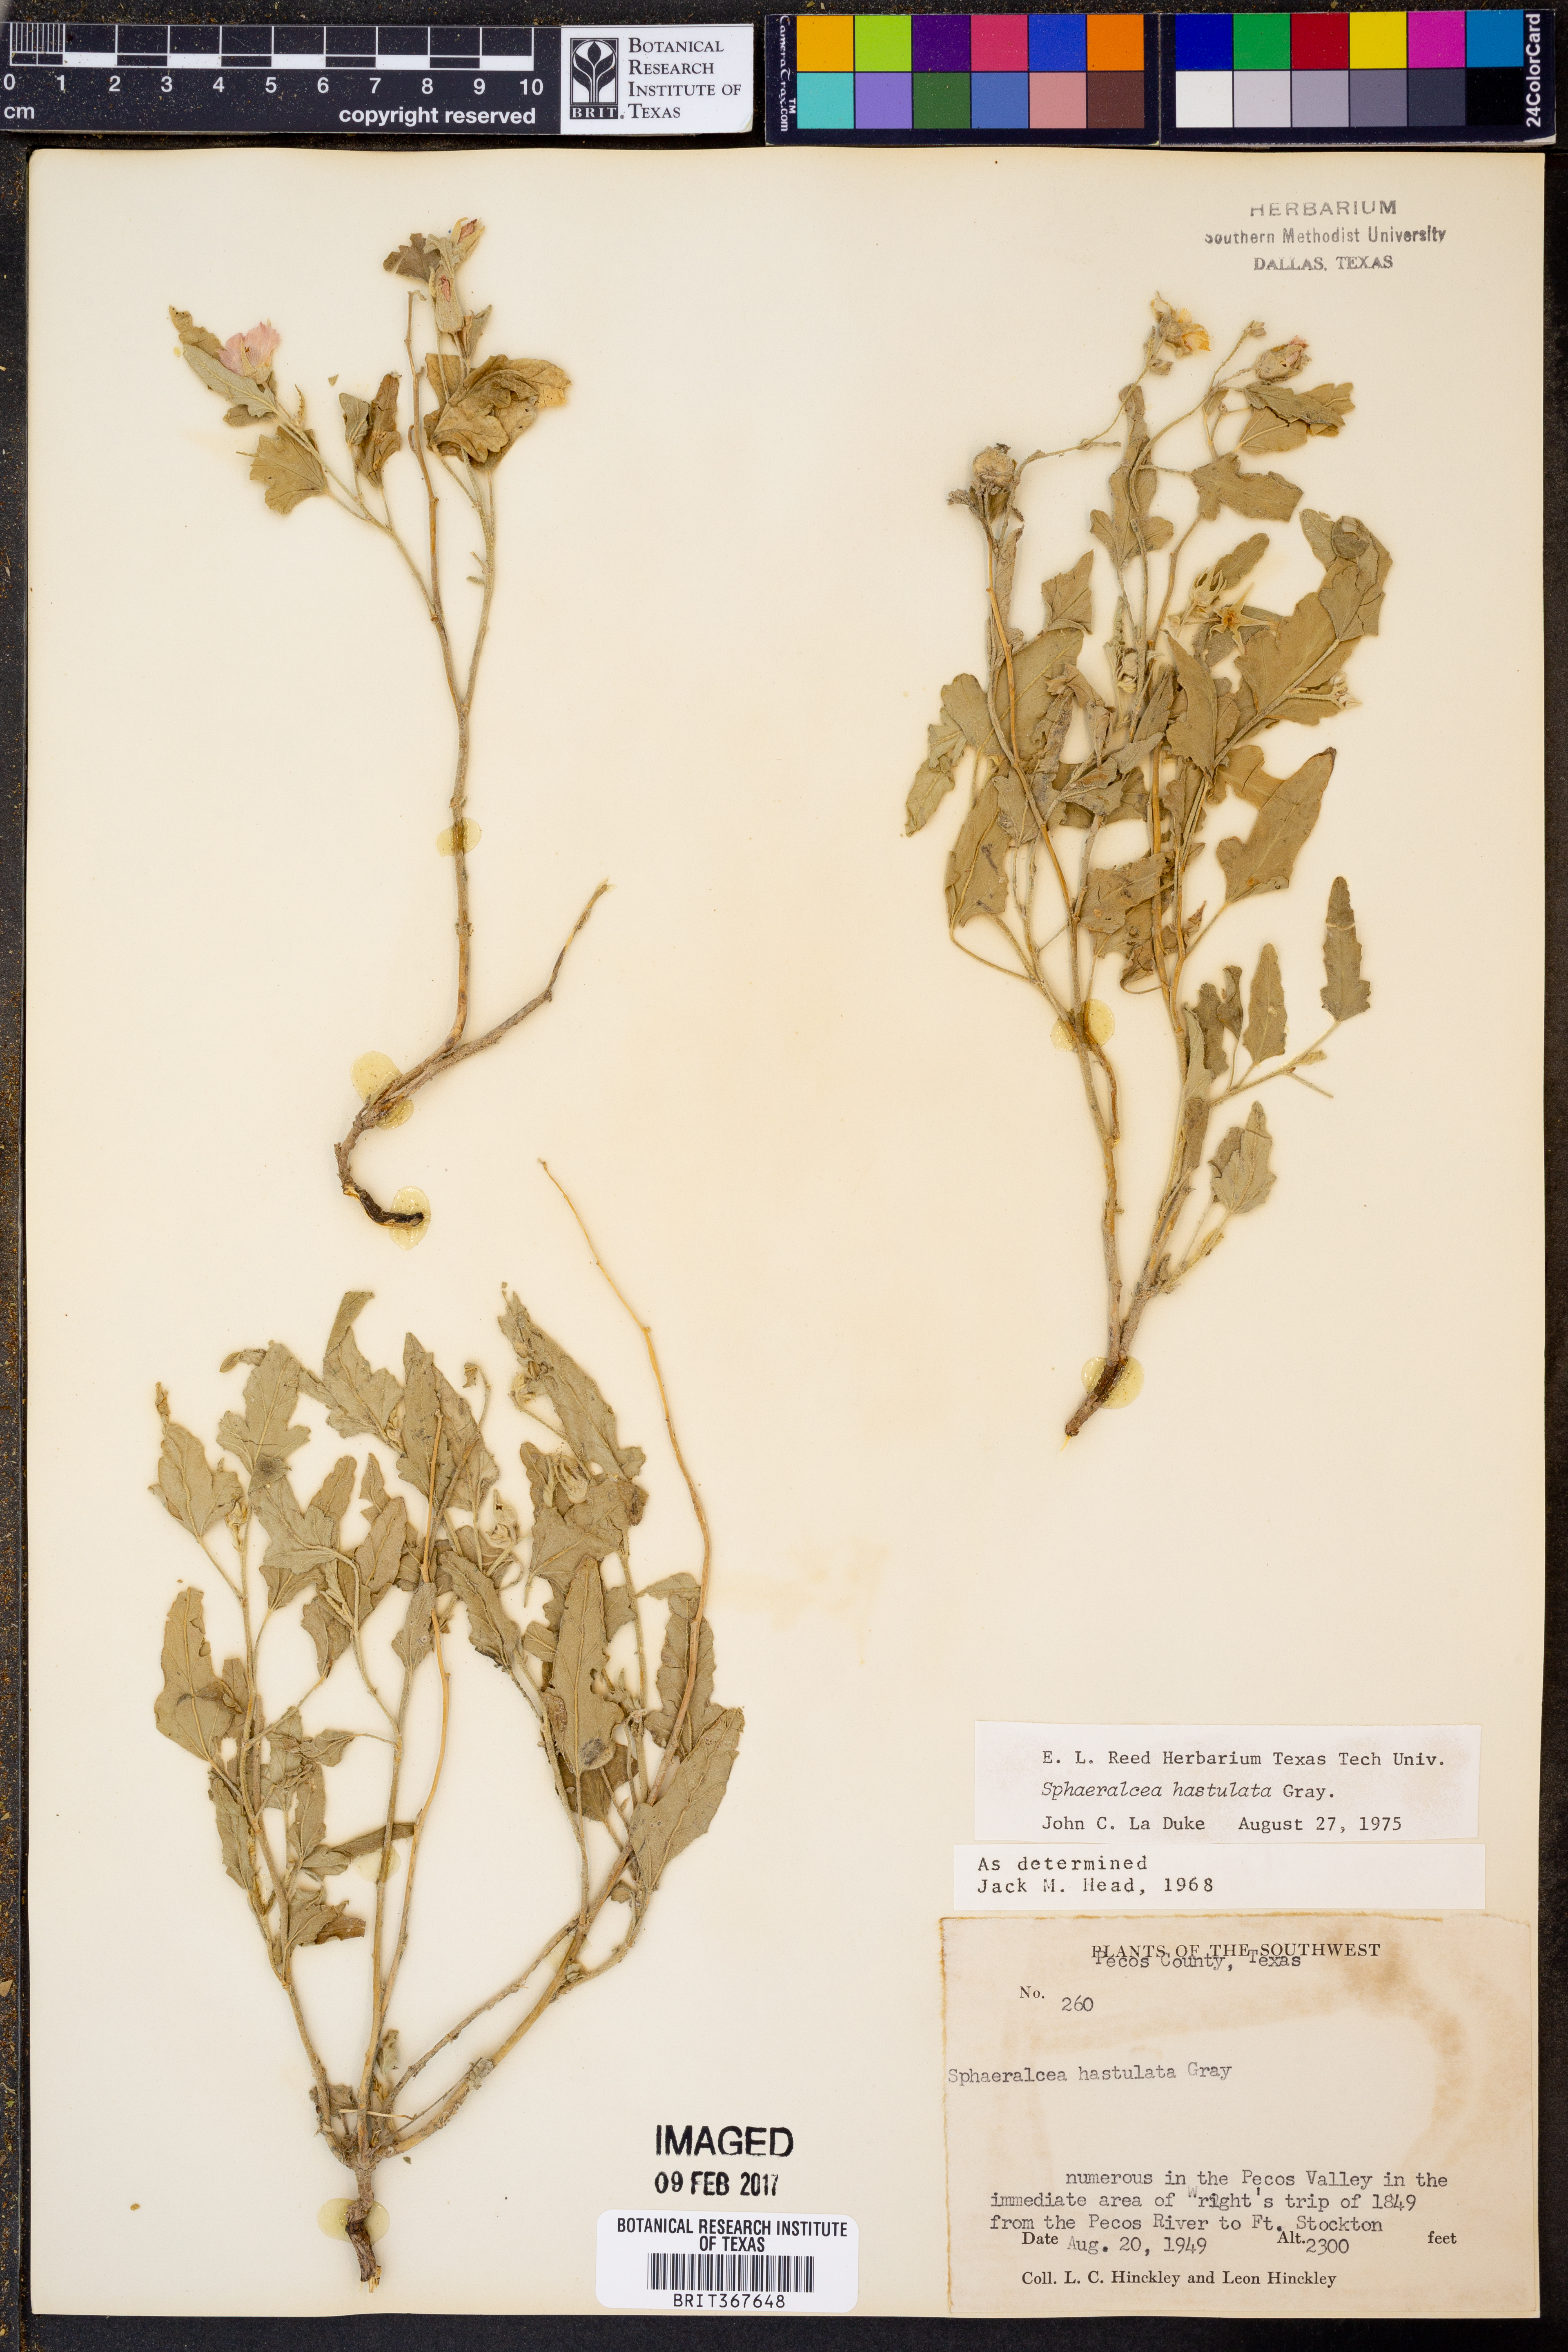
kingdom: Plantae
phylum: Tracheophyta
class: Magnoliopsida
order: Malvales
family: Malvaceae
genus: Sphaeralcea
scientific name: Sphaeralcea hastulata
